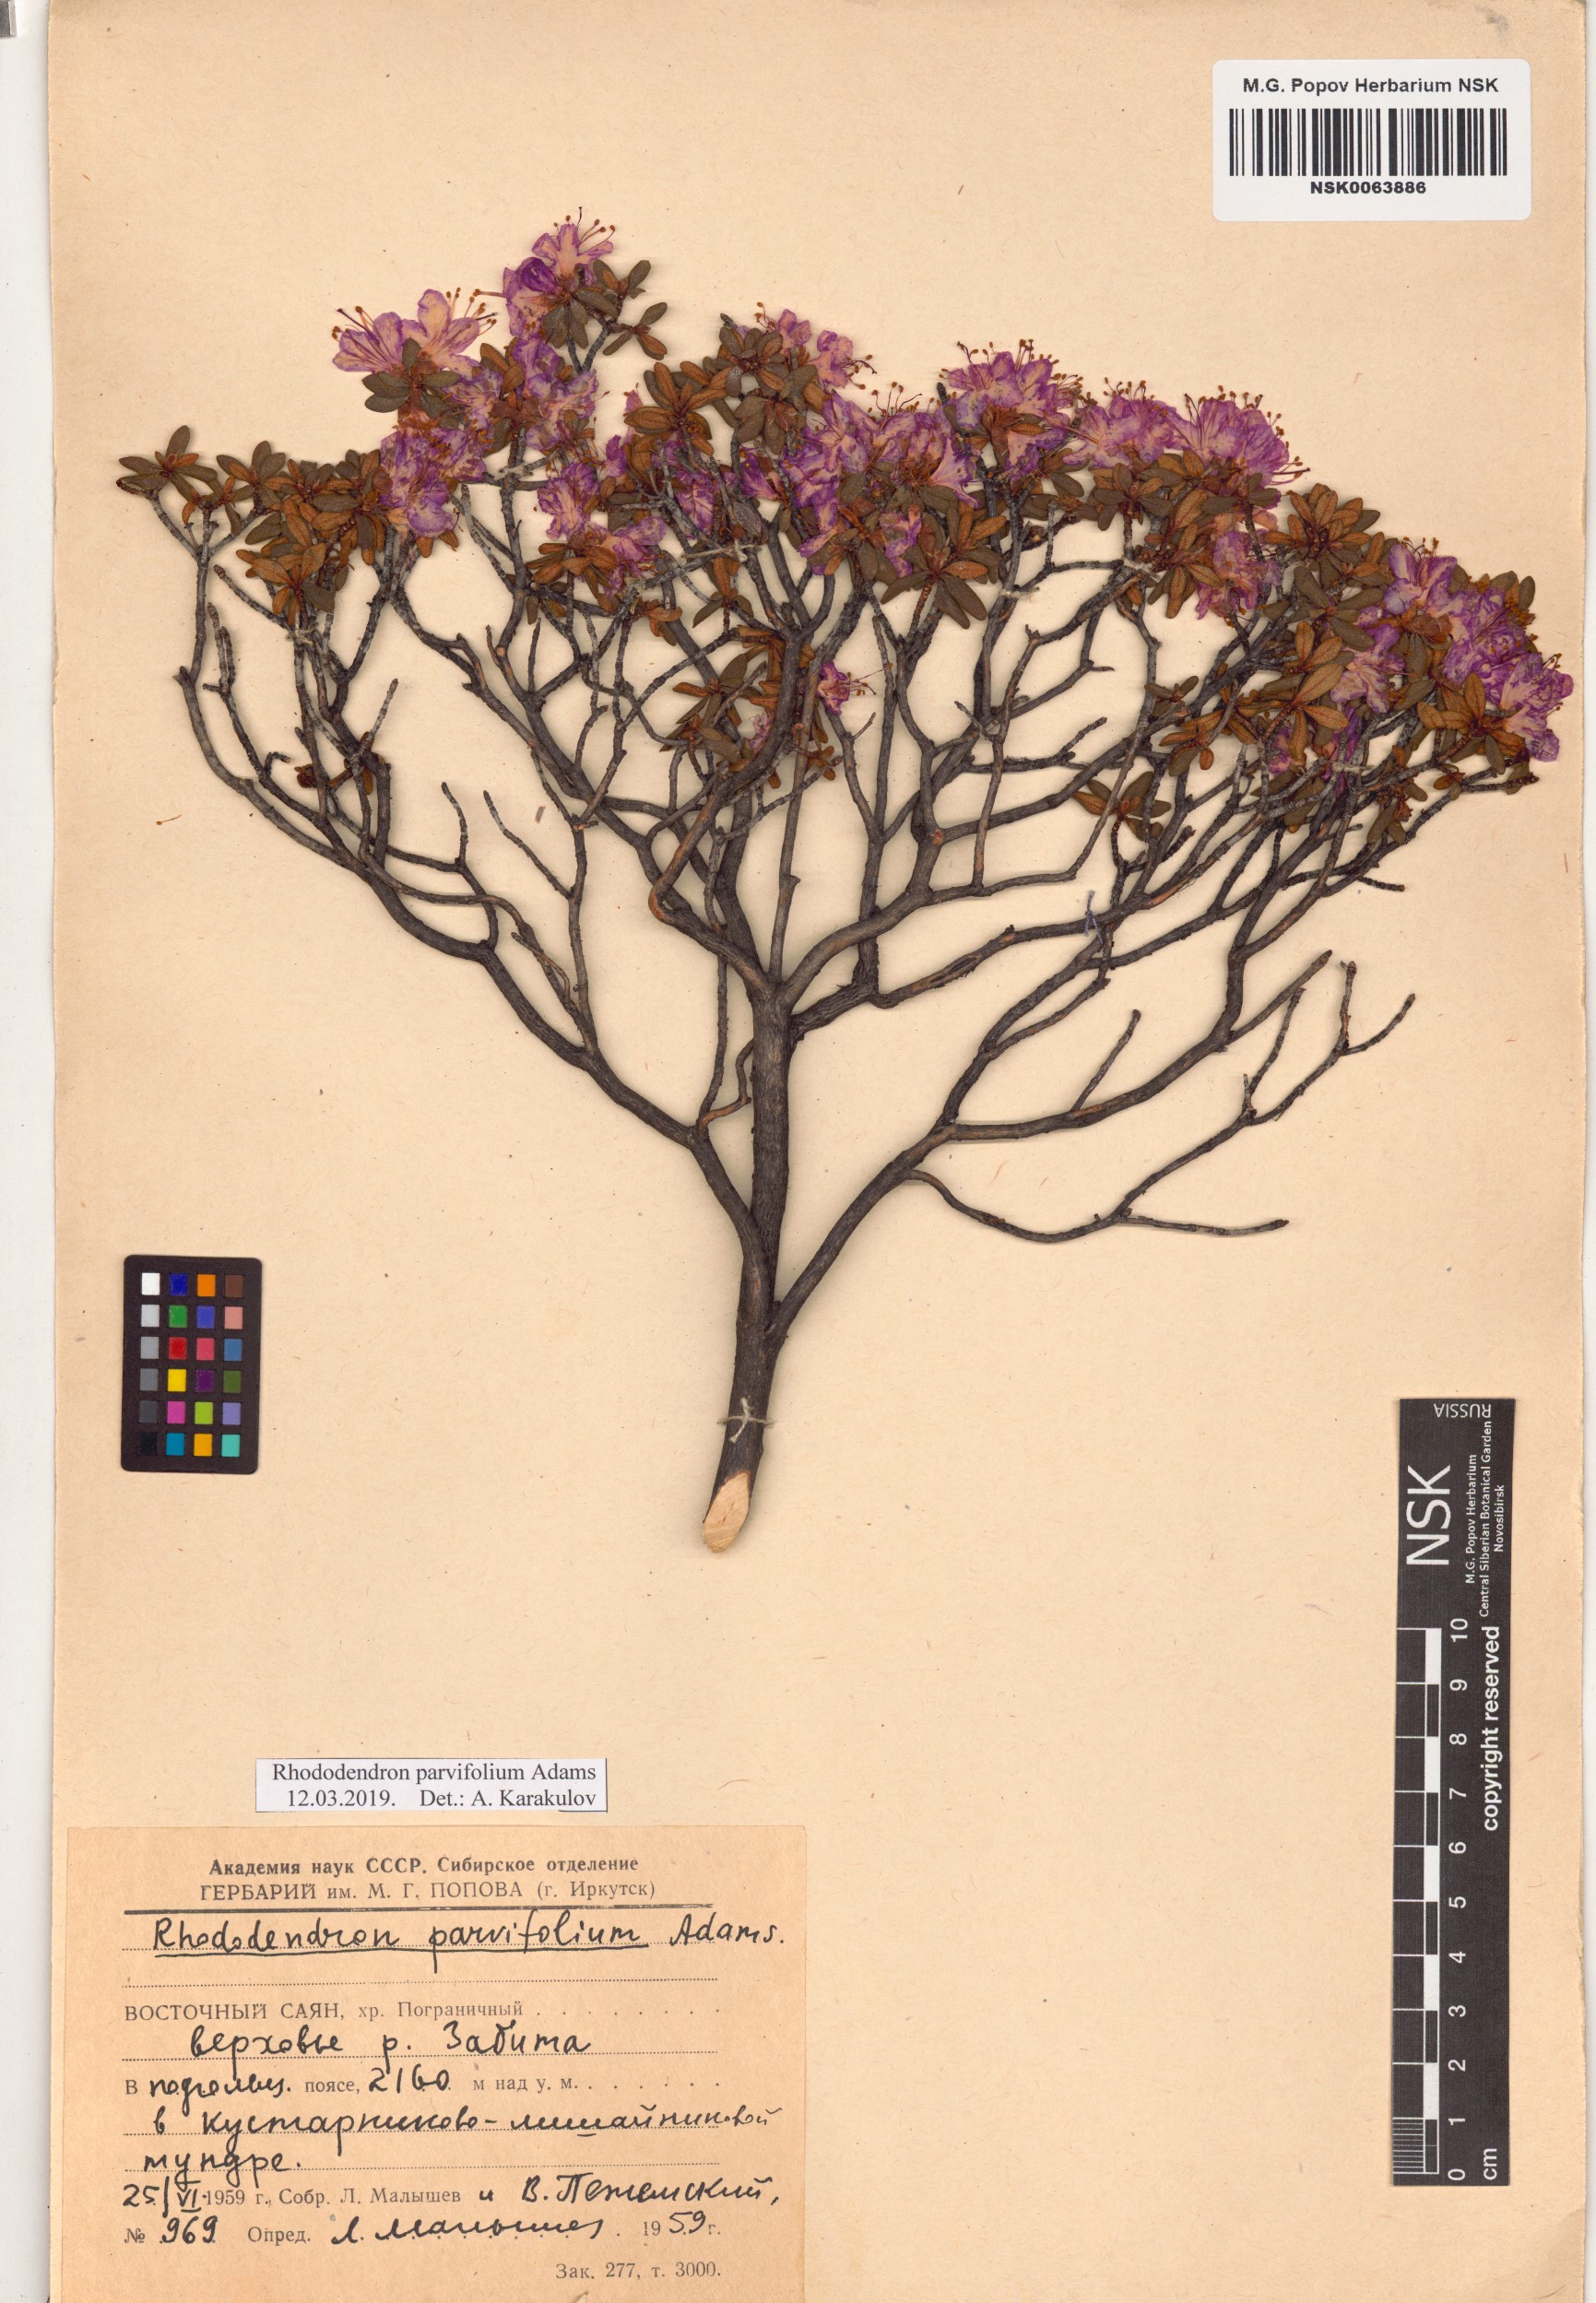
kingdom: Plantae
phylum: Tracheophyta
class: Magnoliopsida
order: Ericales
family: Ericaceae
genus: Rhododendron
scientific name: Rhododendron parvifolium
